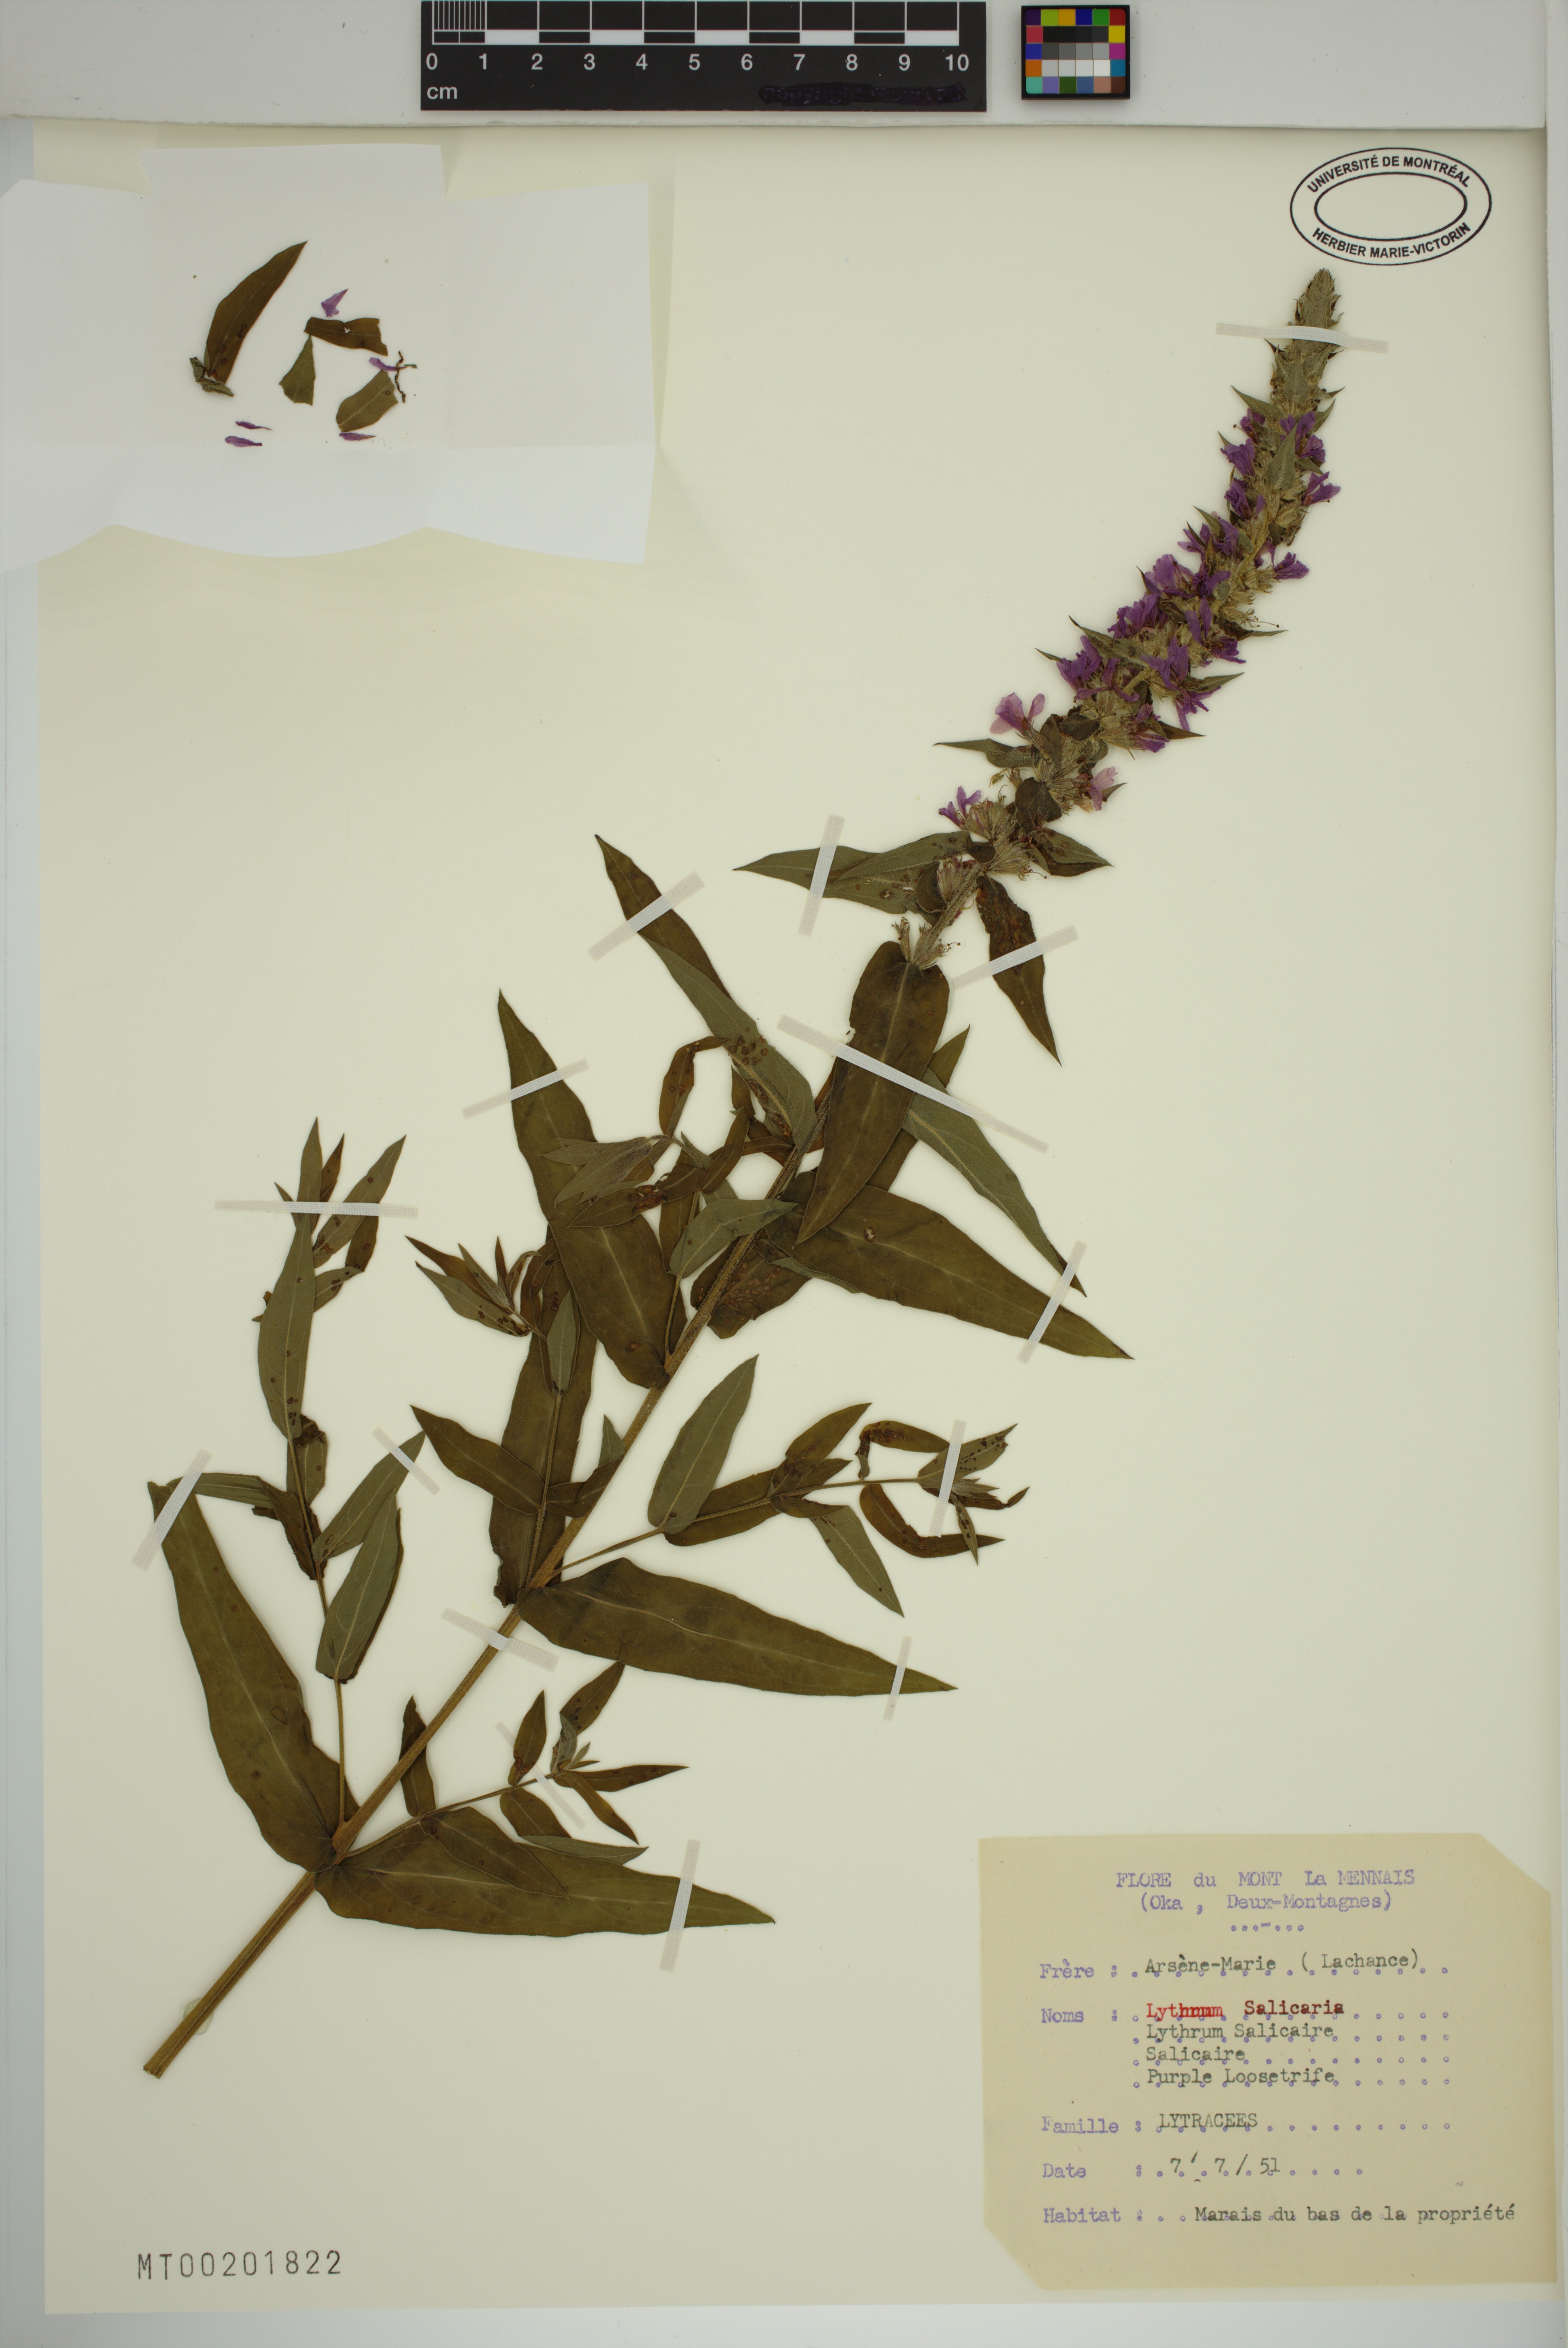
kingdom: Plantae
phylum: Tracheophyta
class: Magnoliopsida
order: Myrtales
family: Lythraceae
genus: Lythrum
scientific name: Lythrum salicaria
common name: Purple loosestrife
